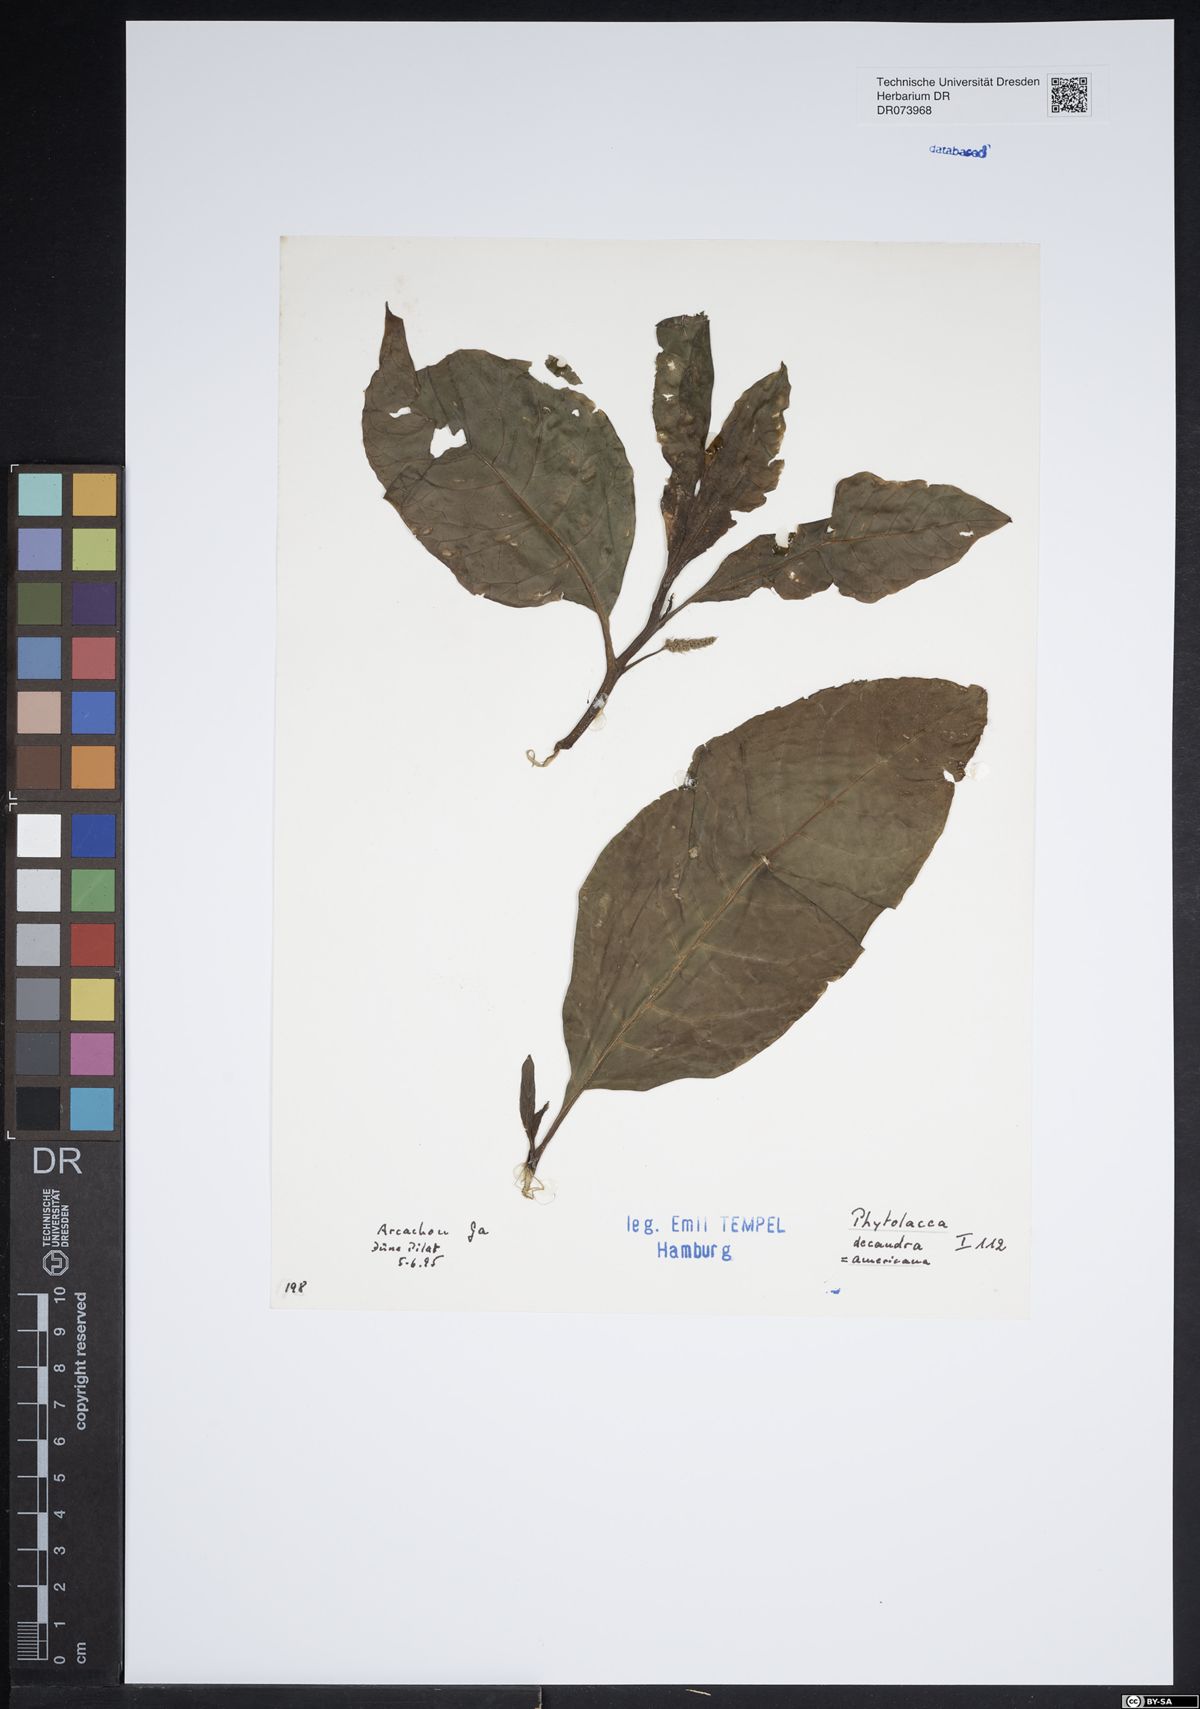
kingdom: Plantae
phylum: Tracheophyta
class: Magnoliopsida
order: Caryophyllales
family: Phytolaccaceae
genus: Phytolacca
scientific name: Phytolacca americana
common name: American pokeweed
